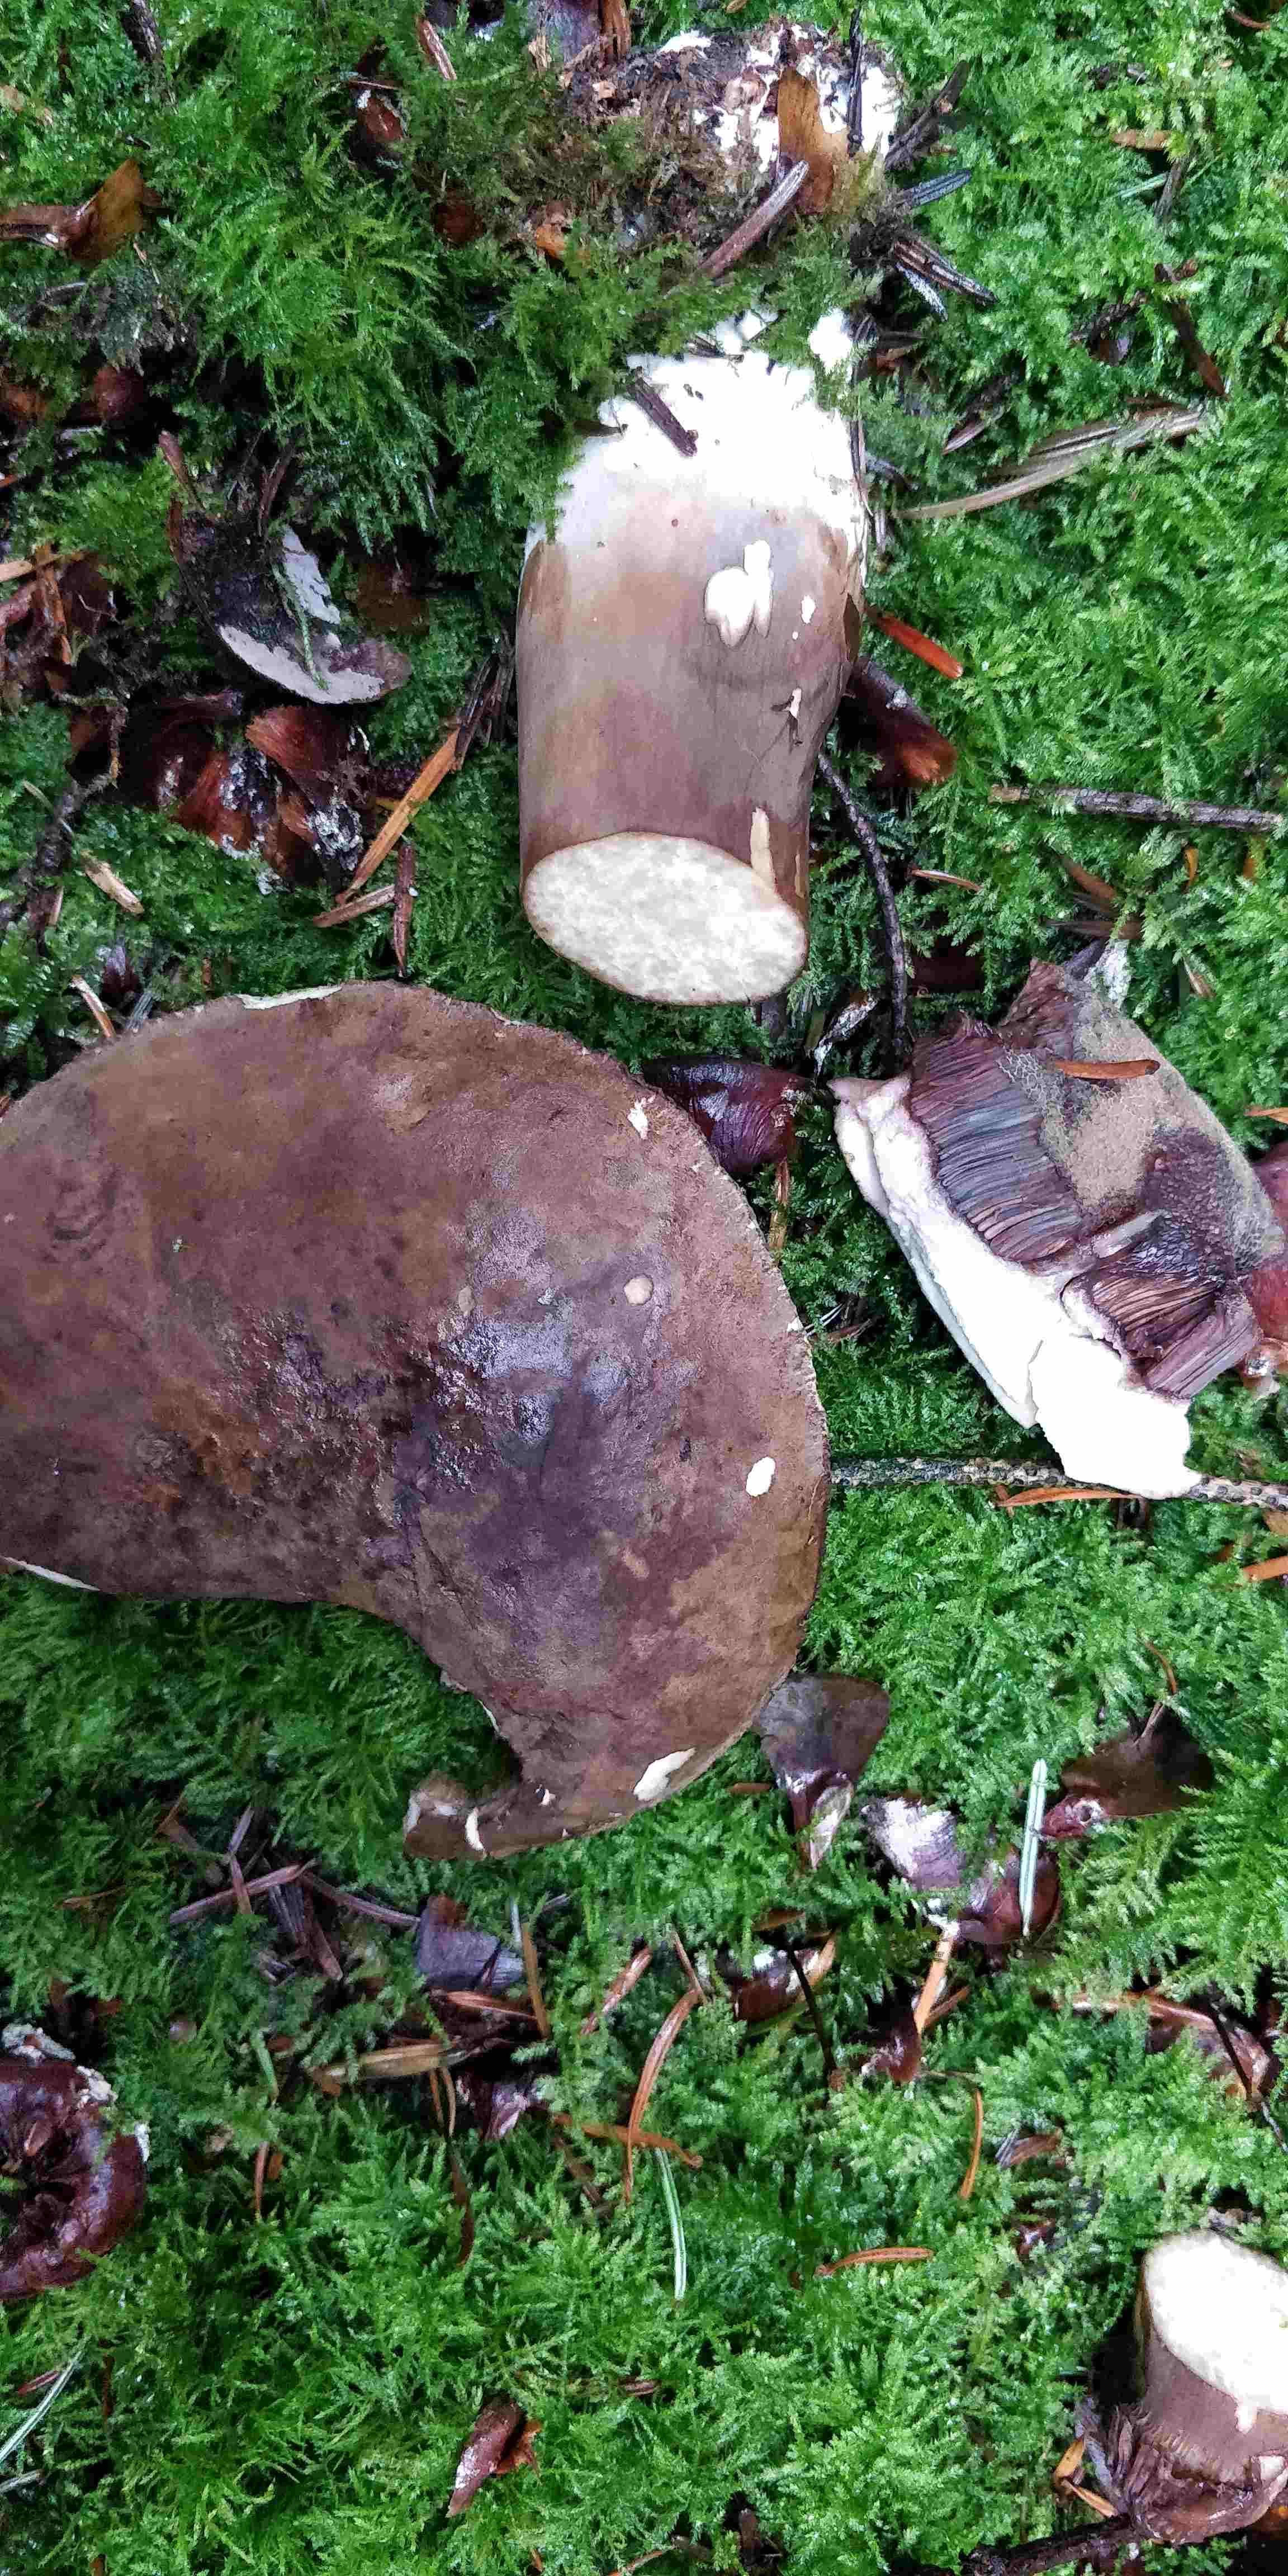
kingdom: Fungi
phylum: Basidiomycota
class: Agaricomycetes
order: Boletales
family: Boletaceae
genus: Porphyrellus
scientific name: Porphyrellus porphyrosporus
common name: sodrørhat
